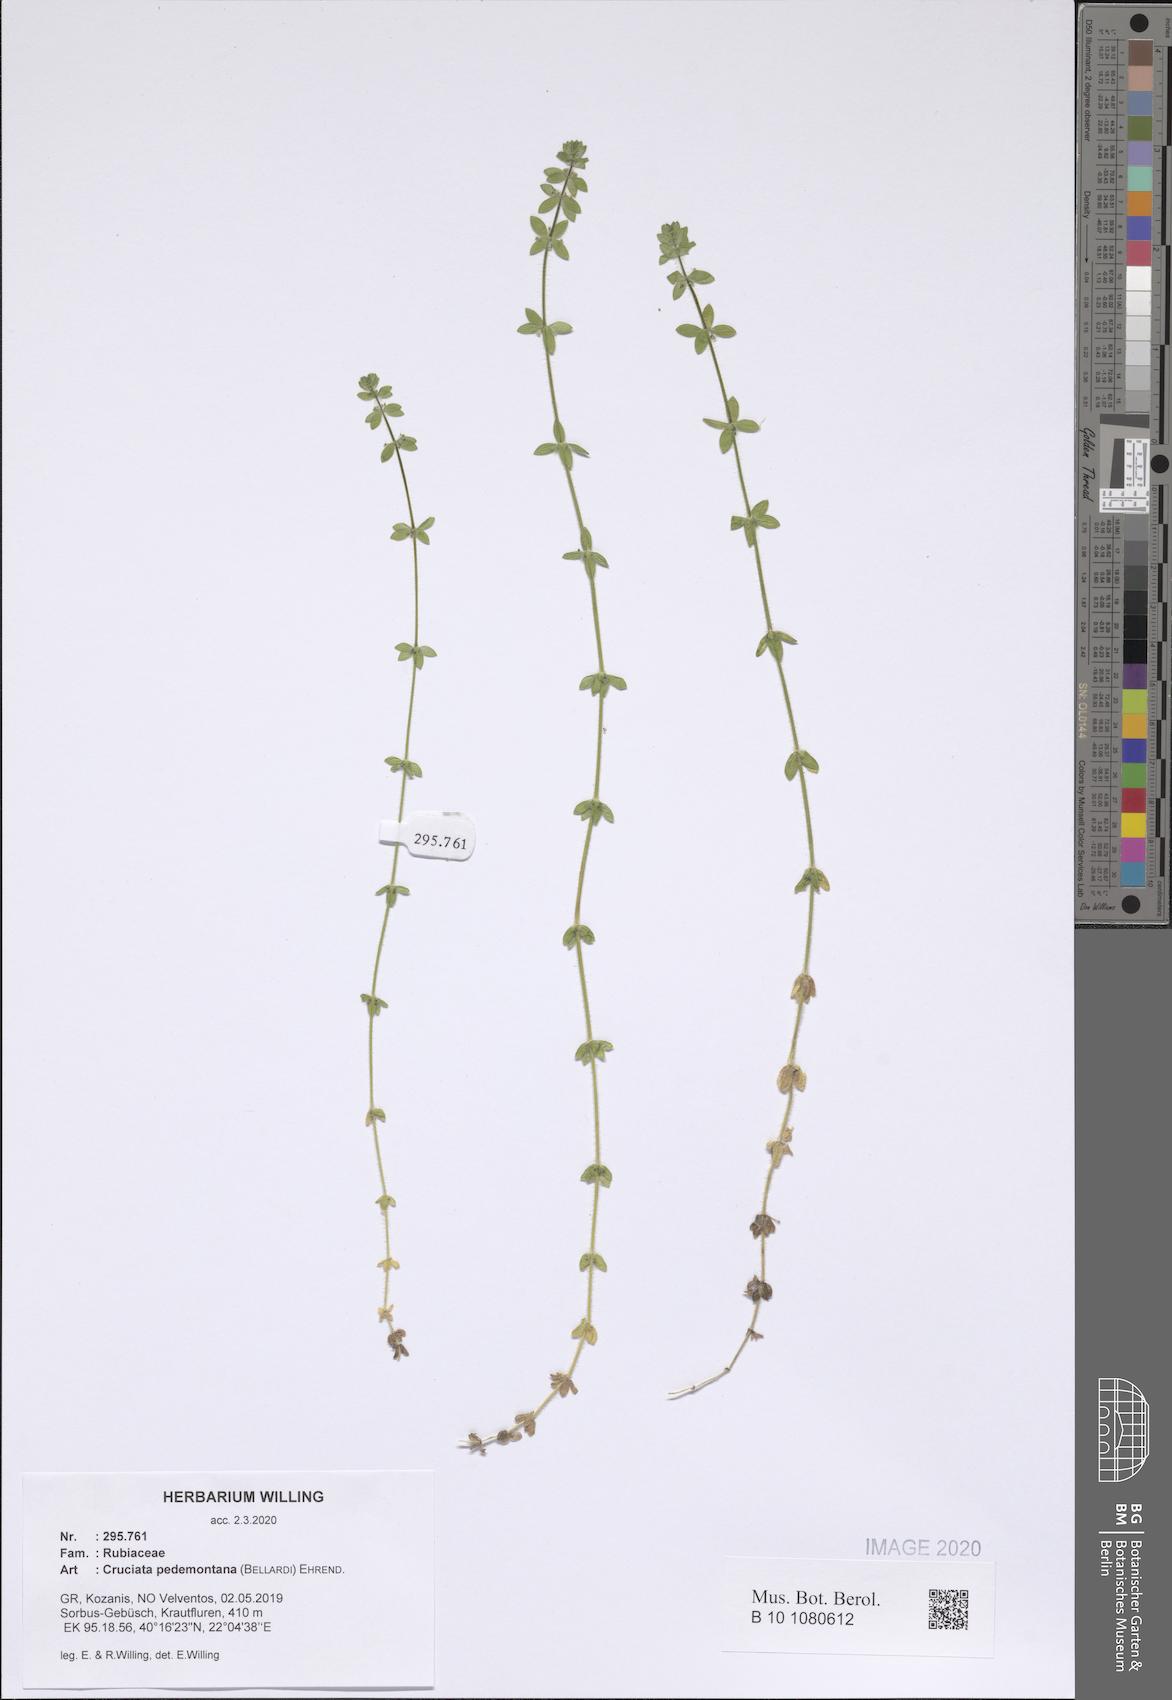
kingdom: Plantae
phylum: Tracheophyta
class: Magnoliopsida
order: Gentianales
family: Rubiaceae
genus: Cruciata
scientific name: Cruciata pedemontana
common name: Piedmont bedstraw
